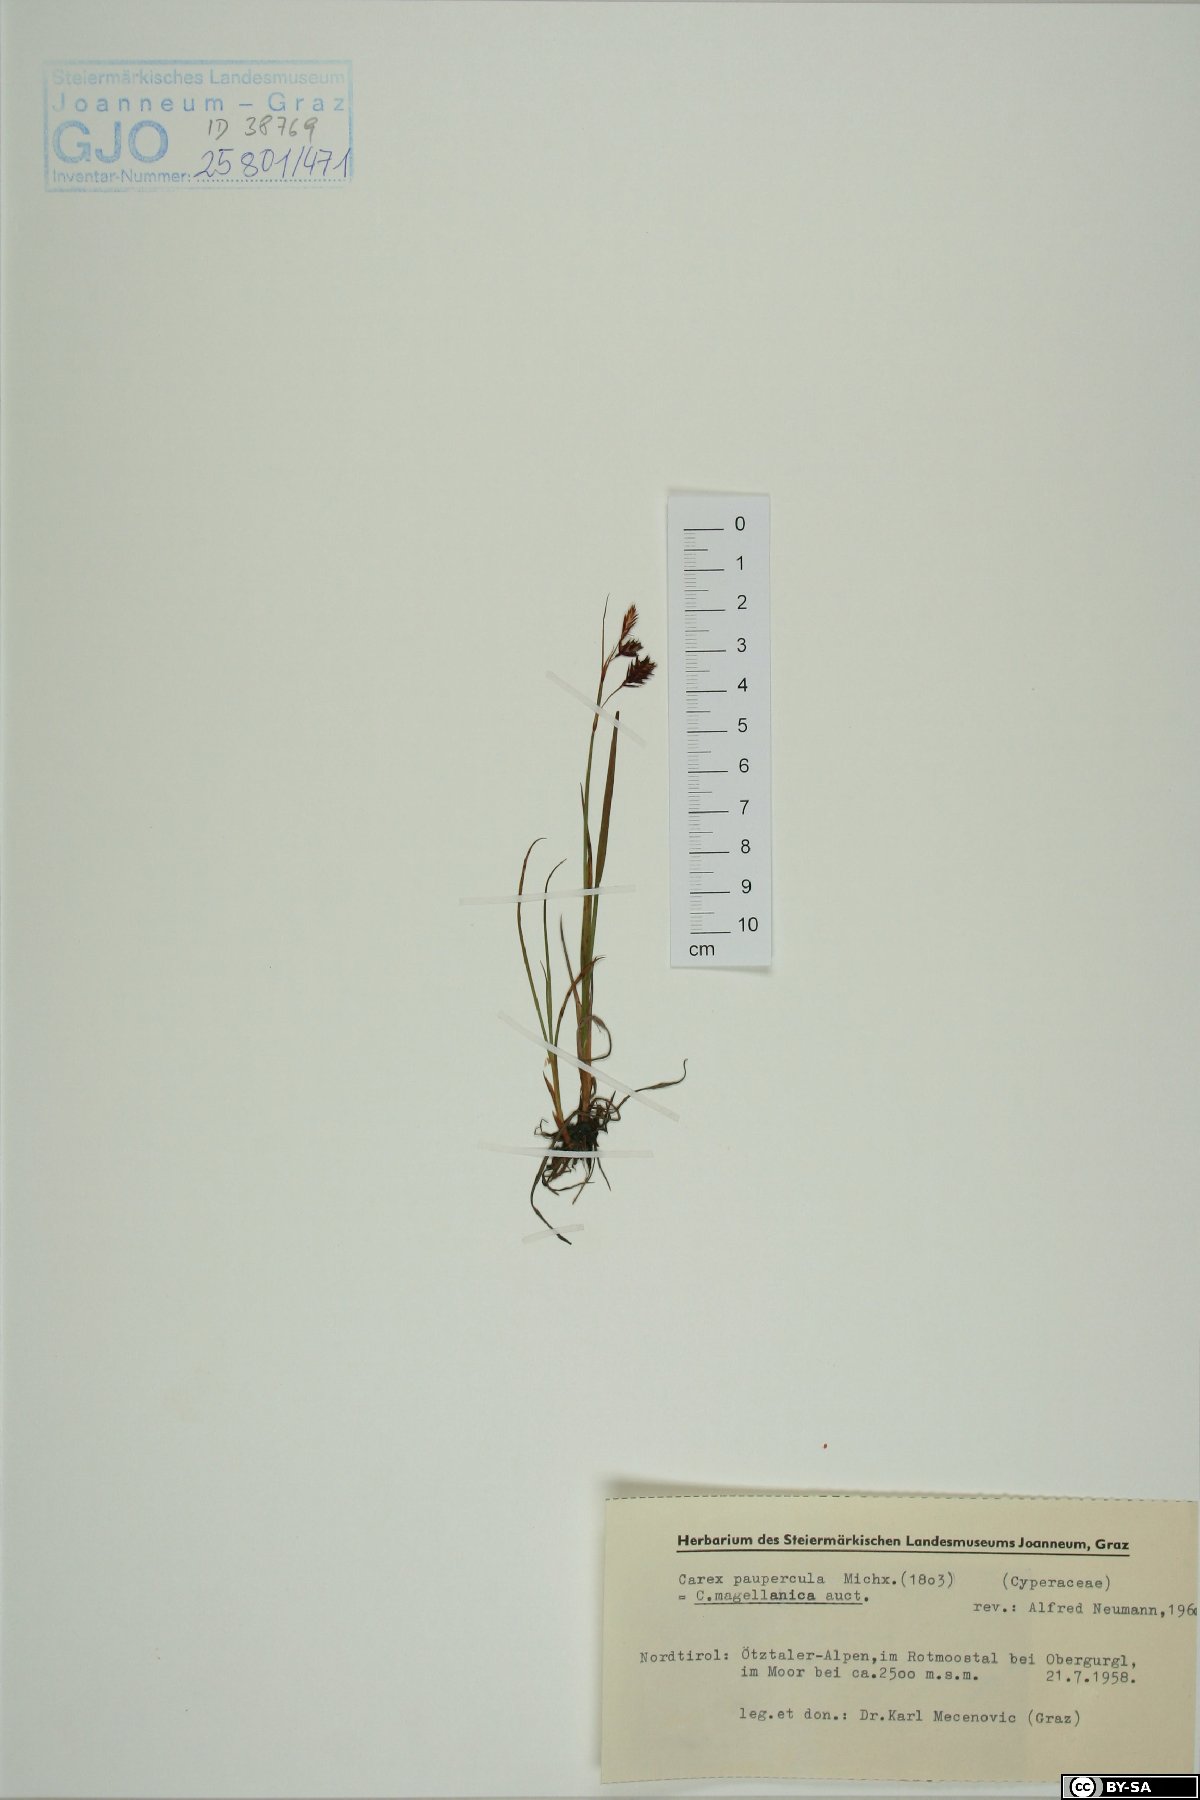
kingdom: Plantae
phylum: Tracheophyta
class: Liliopsida
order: Poales
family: Cyperaceae
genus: Carex
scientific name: Carex magellanica
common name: Bog sedge
